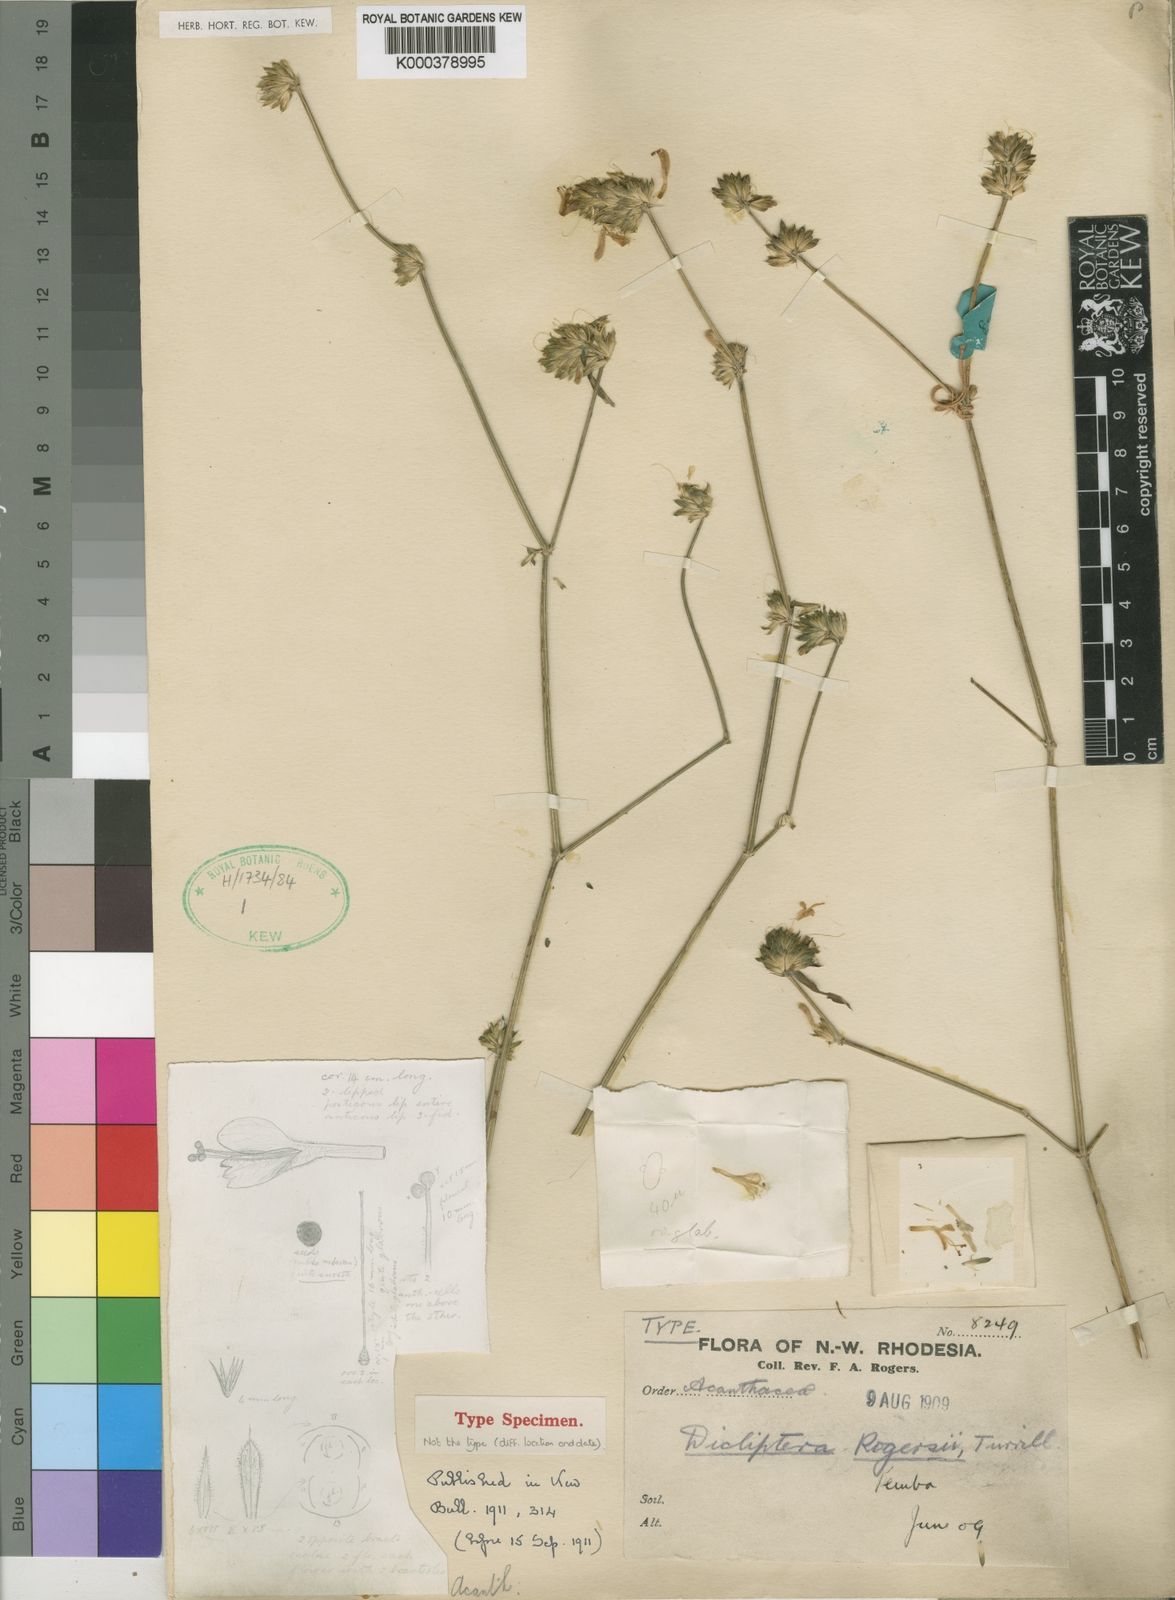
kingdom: Plantae
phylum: Tracheophyta
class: Magnoliopsida
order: Lamiales
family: Acanthaceae
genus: Dicliptera
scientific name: Dicliptera carvalhoi
